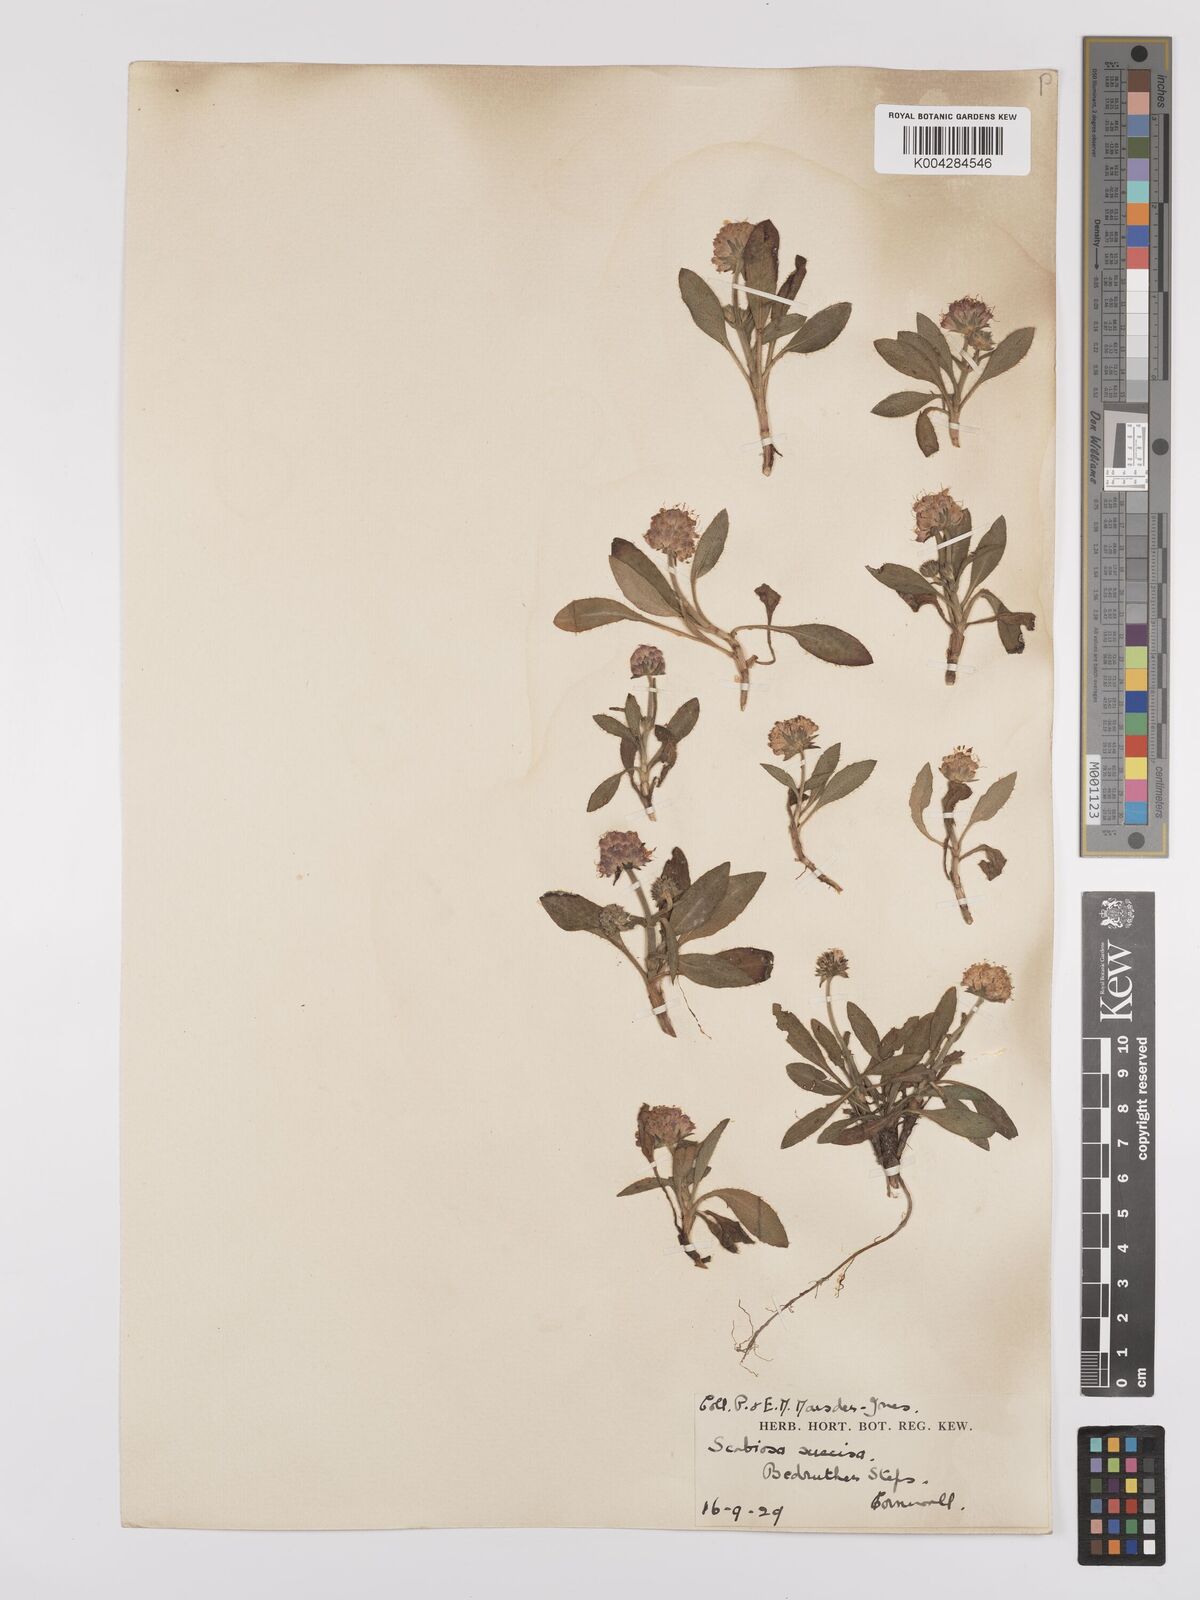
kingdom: Plantae
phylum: Tracheophyta
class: Magnoliopsida
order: Dipsacales
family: Caprifoliaceae
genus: Succisa
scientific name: Succisa pratensis
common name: Devil's-bit
